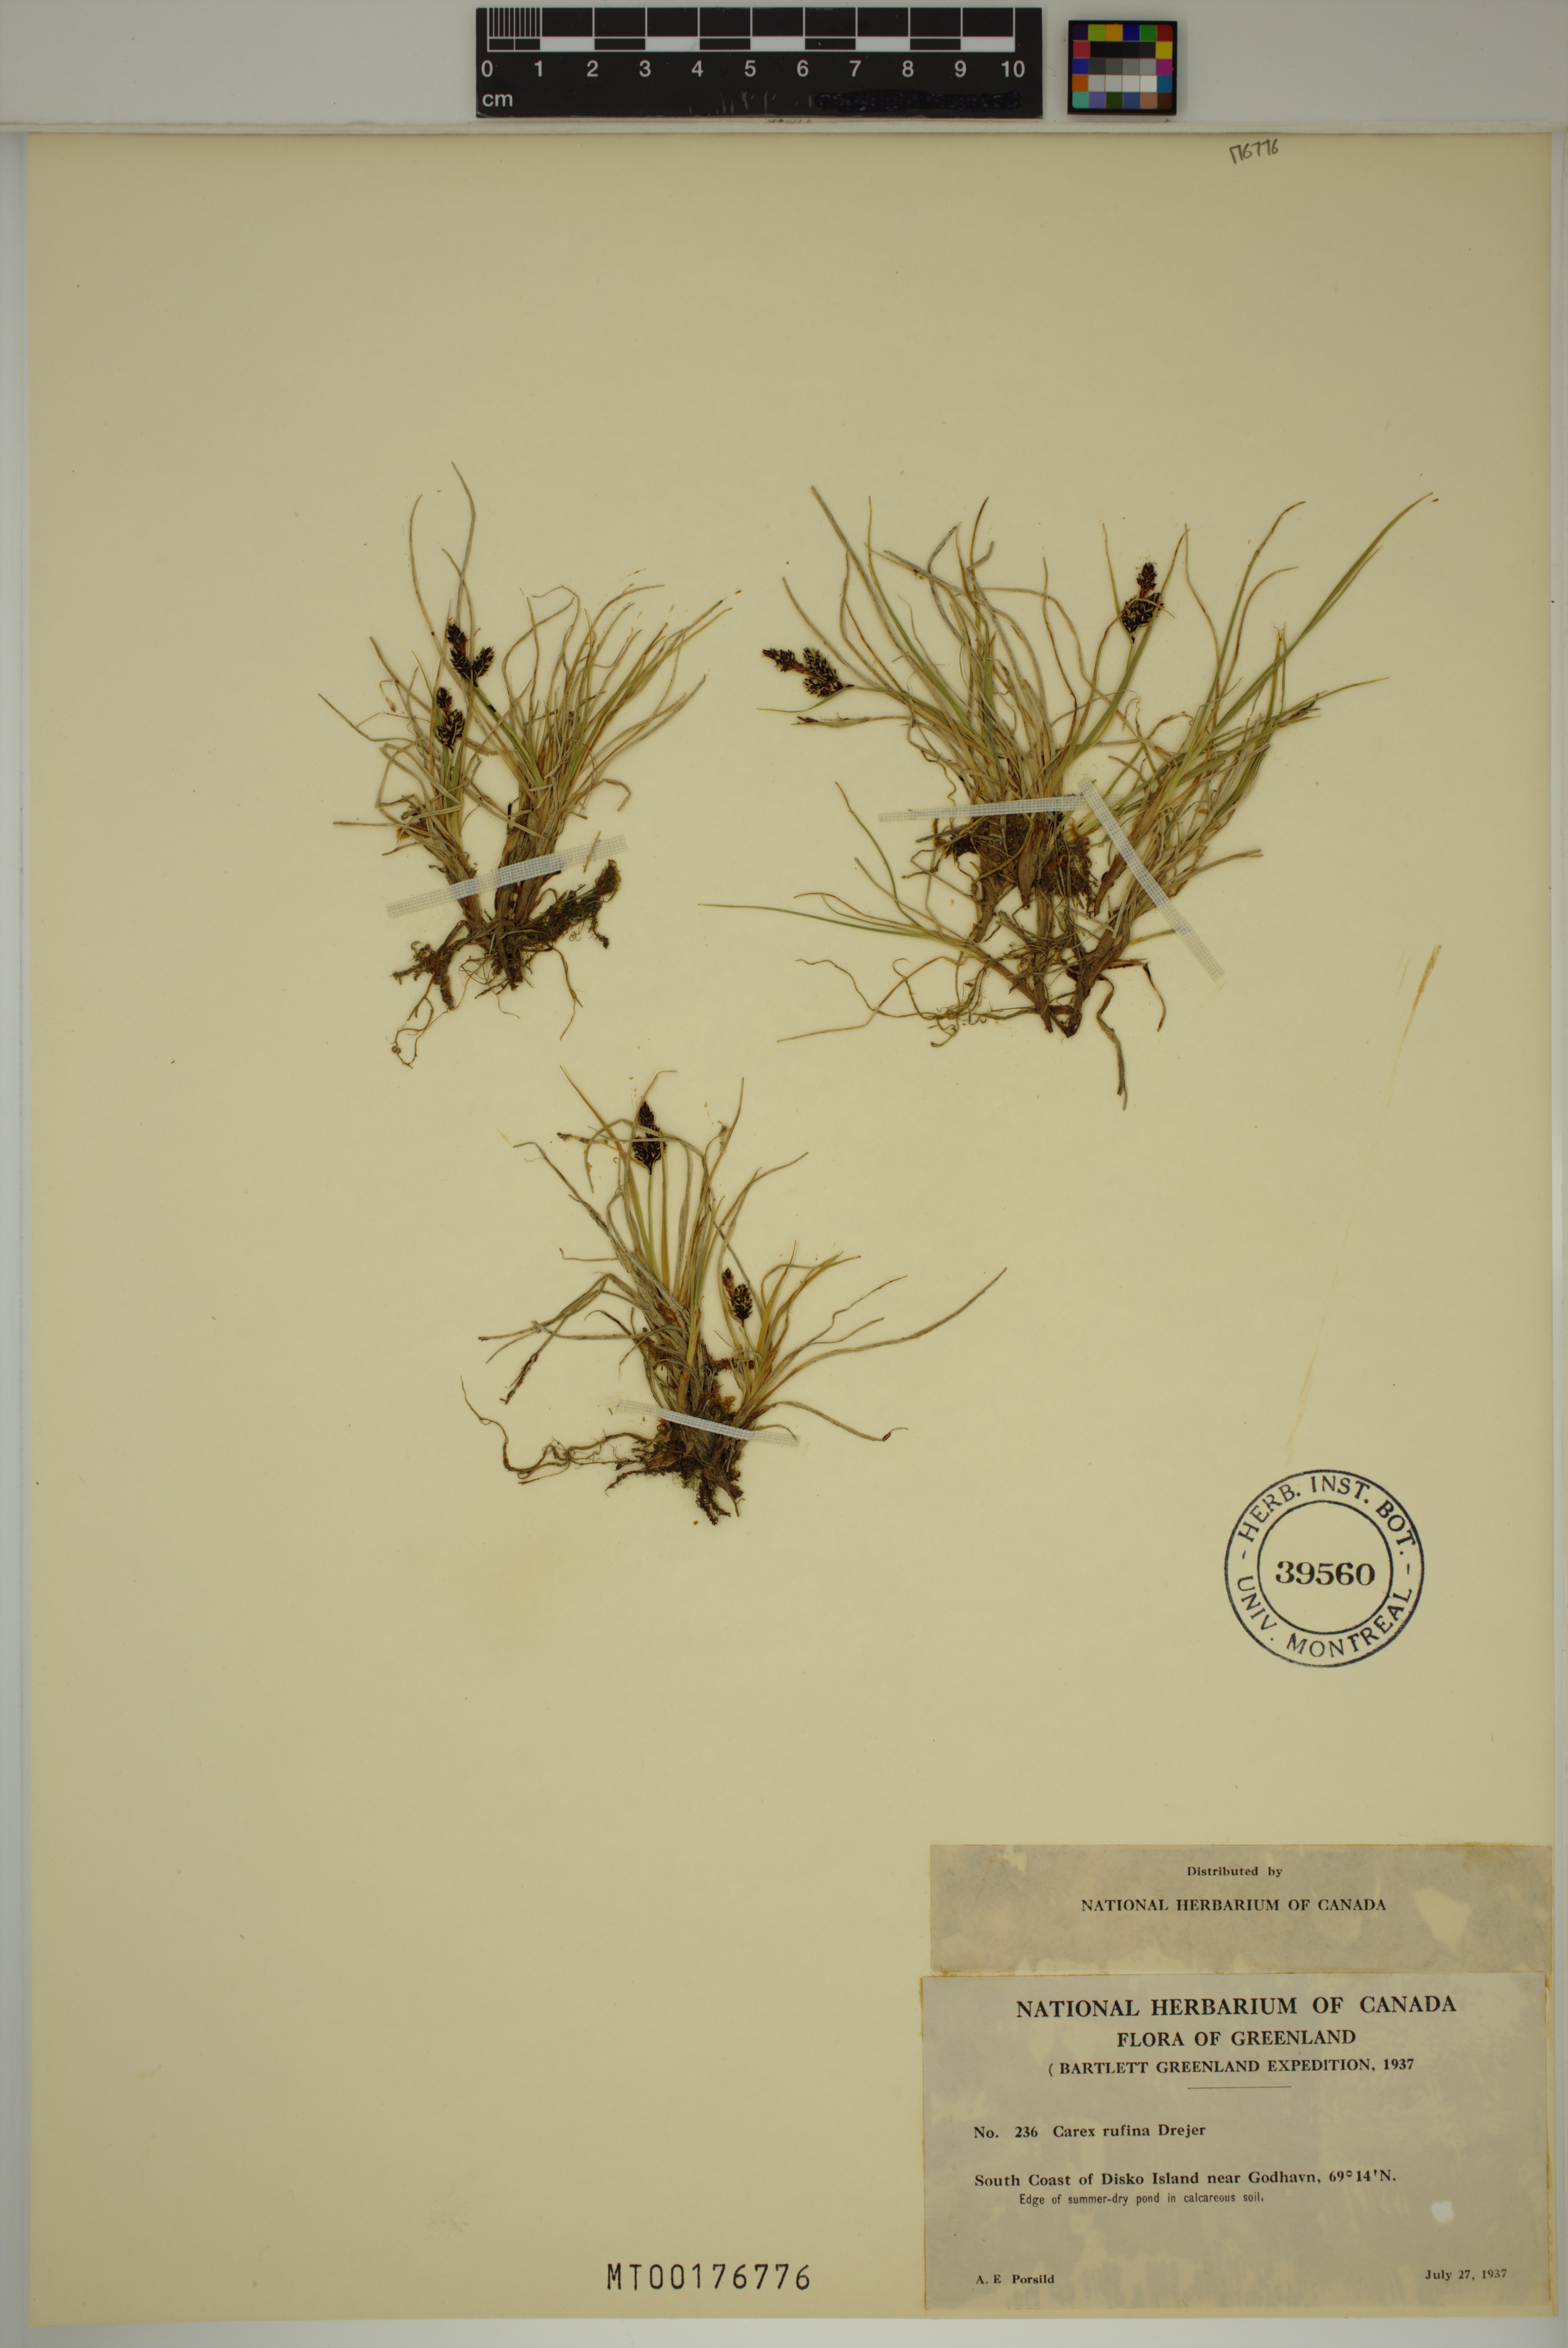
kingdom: Plantae
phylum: Tracheophyta
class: Liliopsida
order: Poales
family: Cyperaceae
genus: Carex
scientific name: Carex rufina
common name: Reddish sedge
